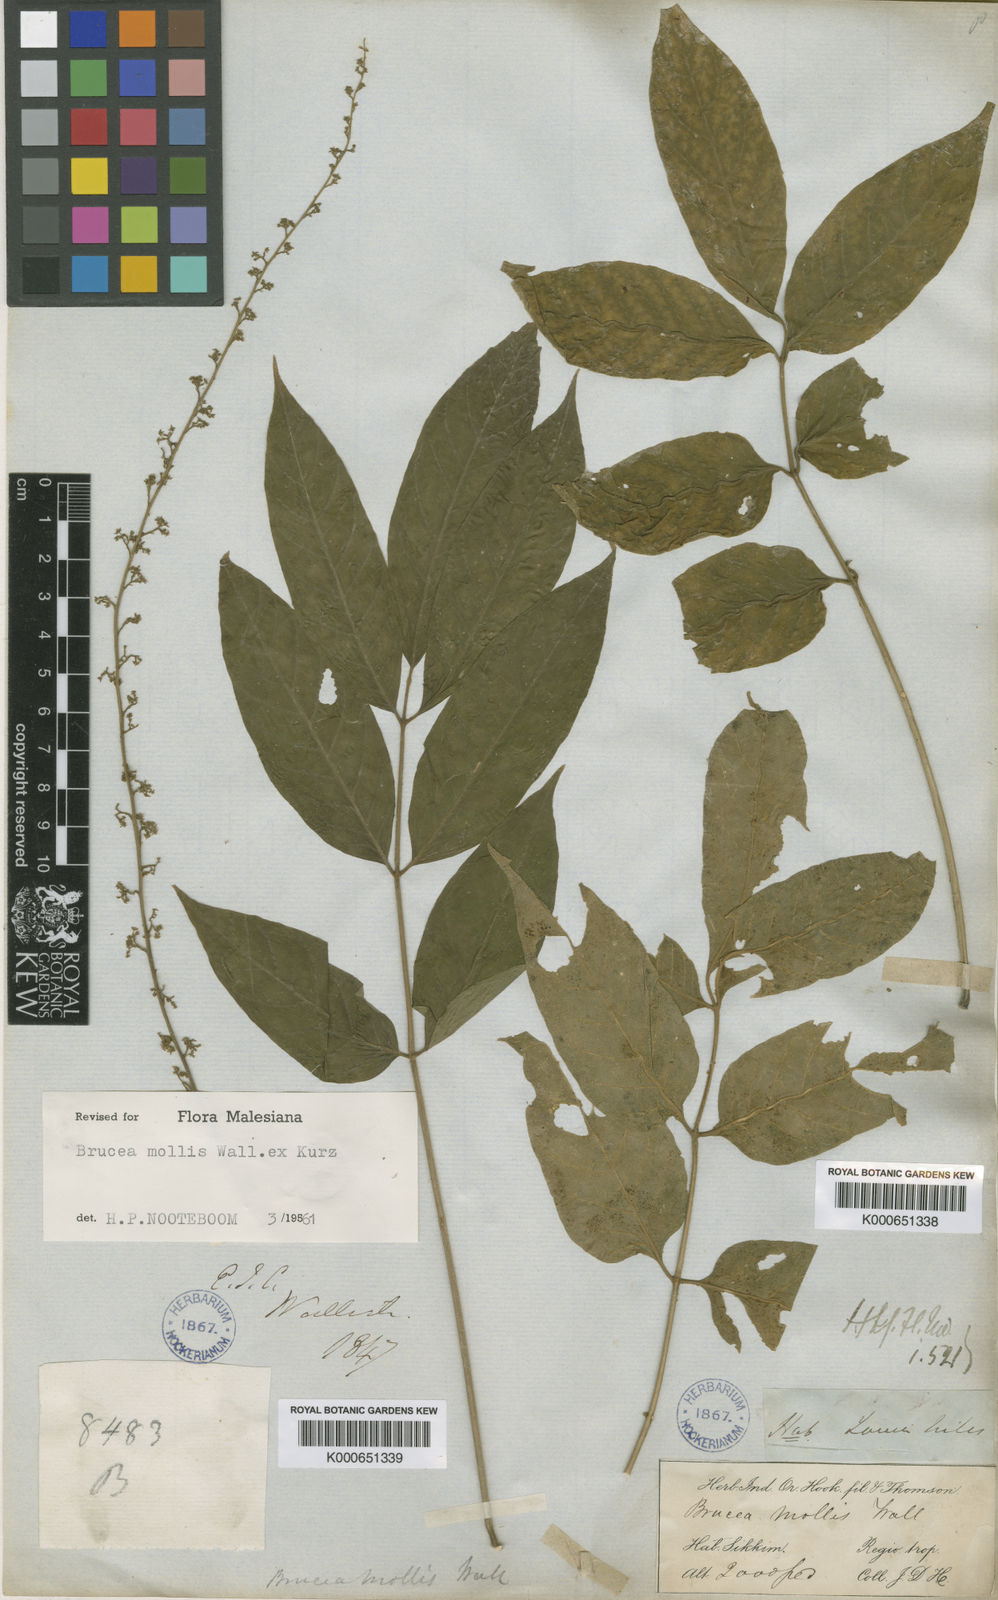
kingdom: Plantae
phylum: Tracheophyta
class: Magnoliopsida
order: Sapindales
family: Simaroubaceae
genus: Brucea
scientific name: Brucea mollis
